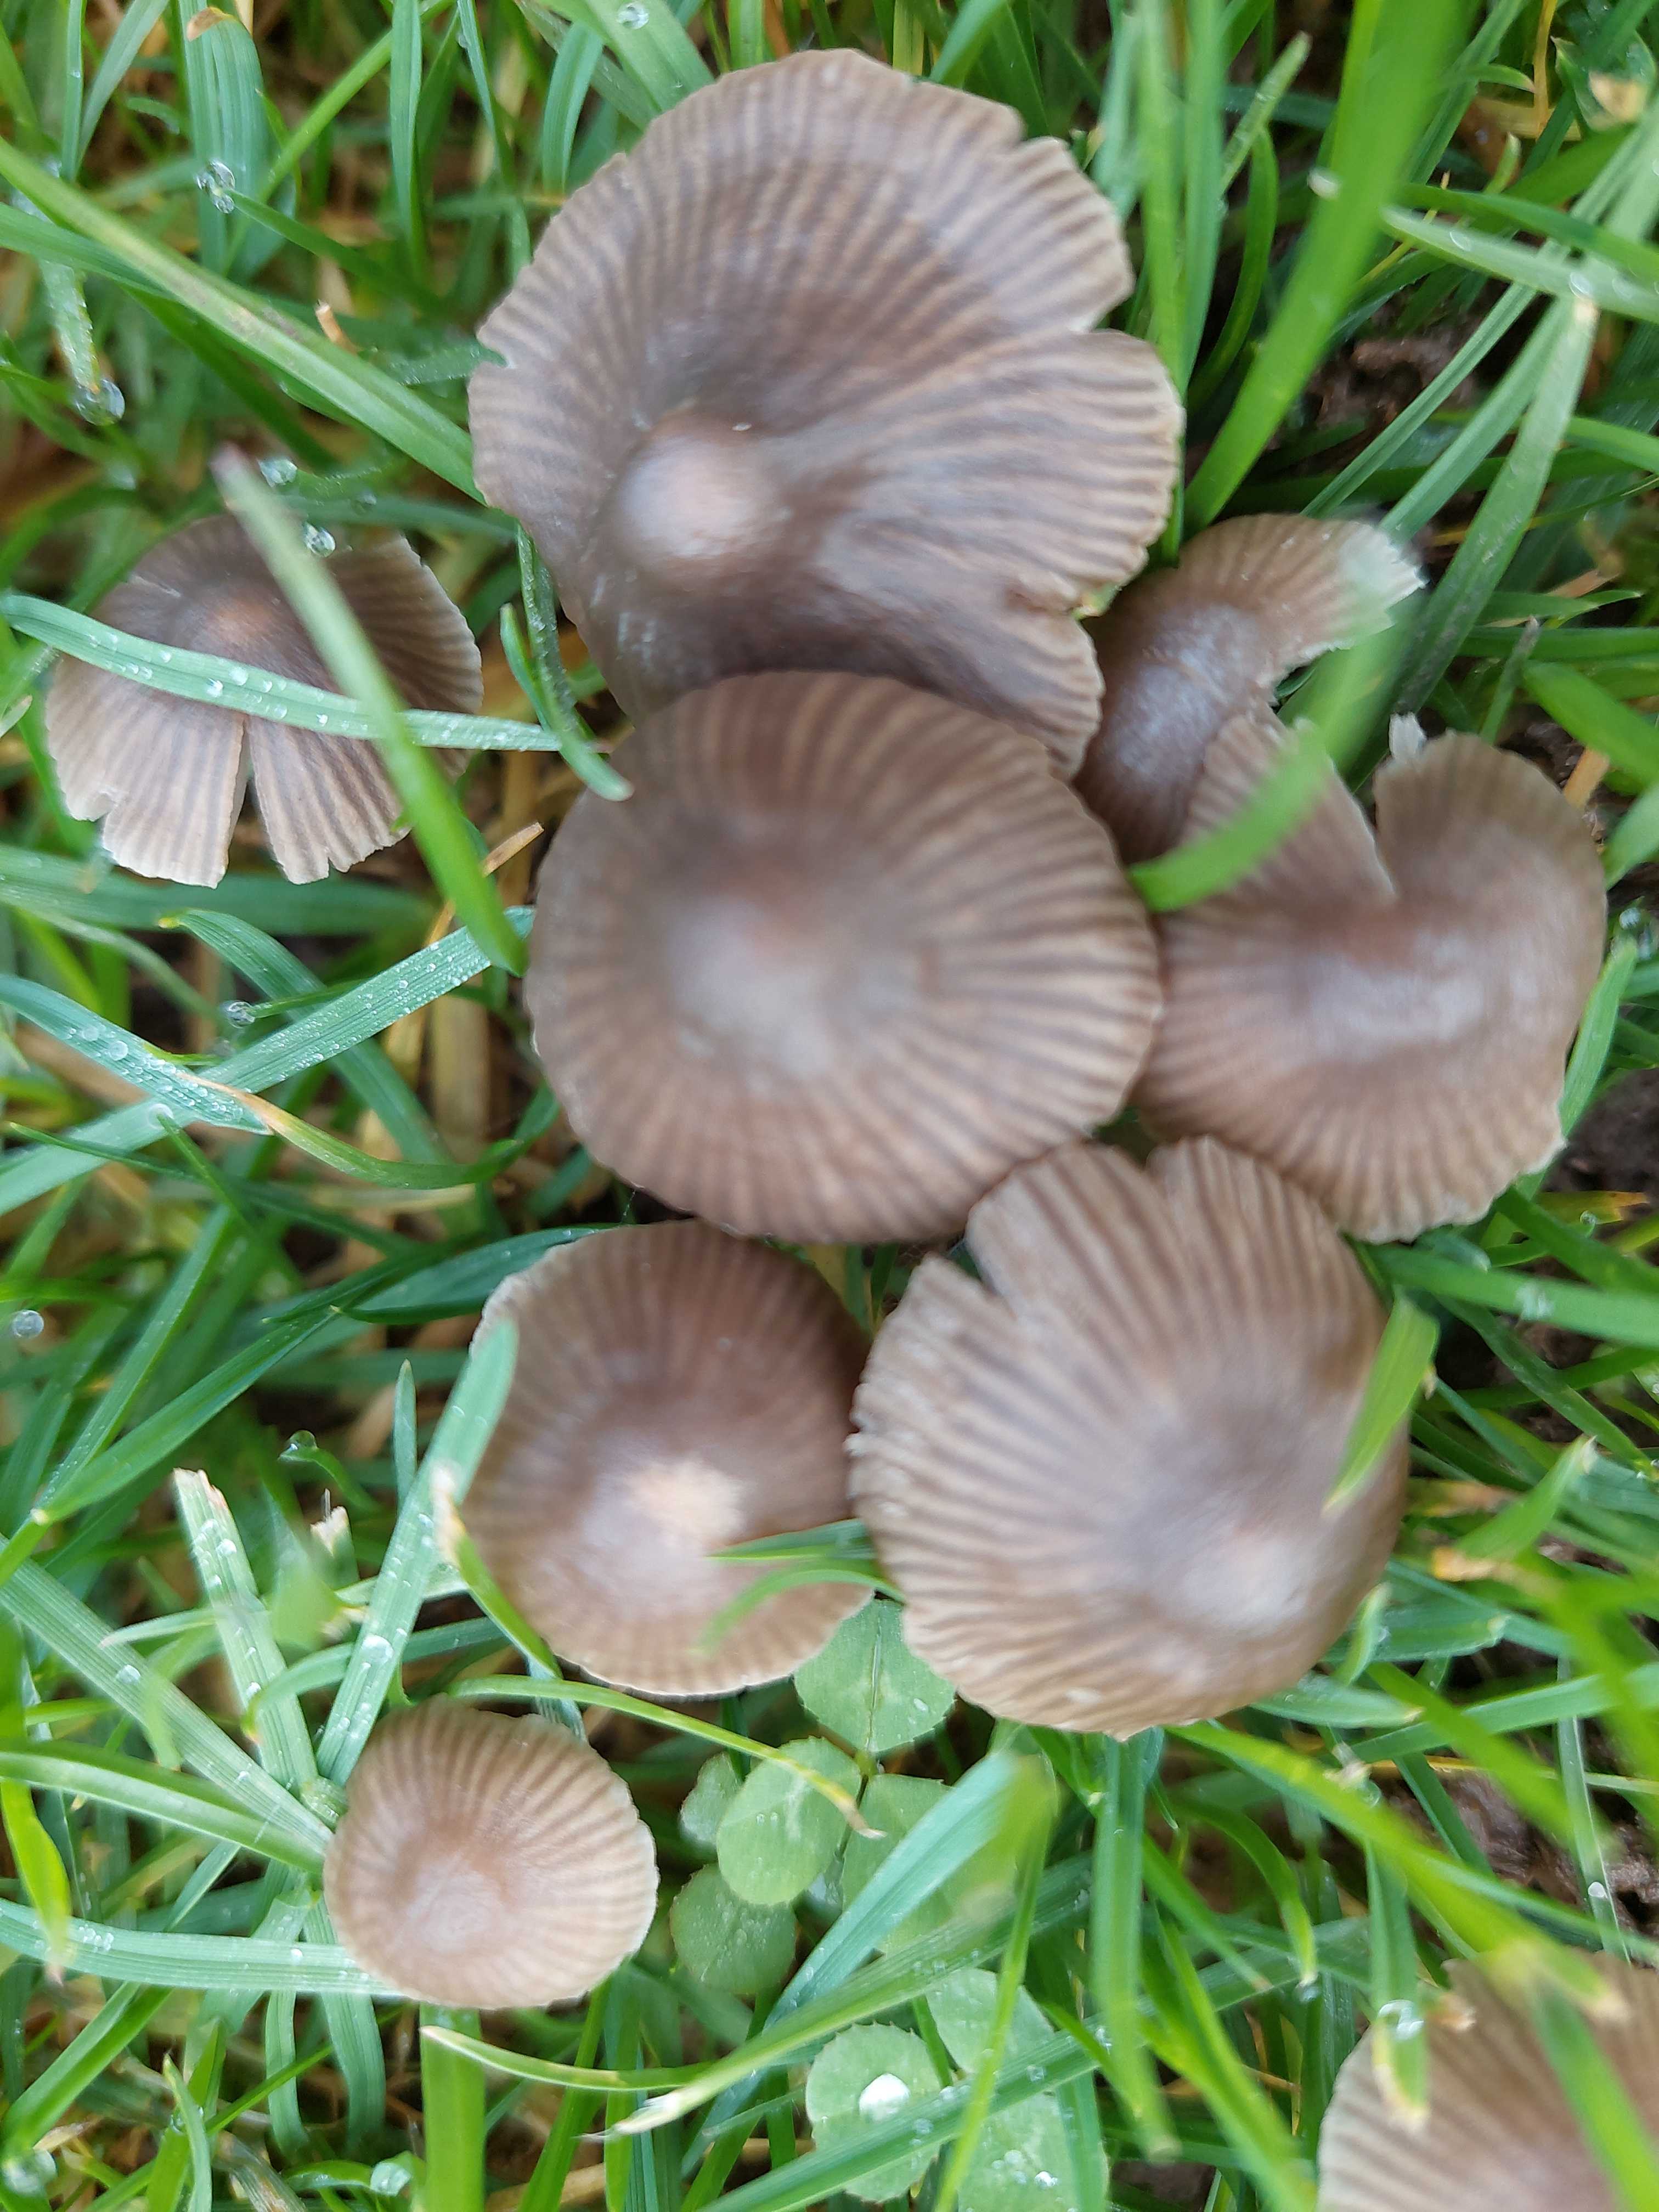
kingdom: Fungi
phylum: Basidiomycota
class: Agaricomycetes
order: Agaricales
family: Mycenaceae
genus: Mycena
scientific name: Mycena
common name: huesvamp
